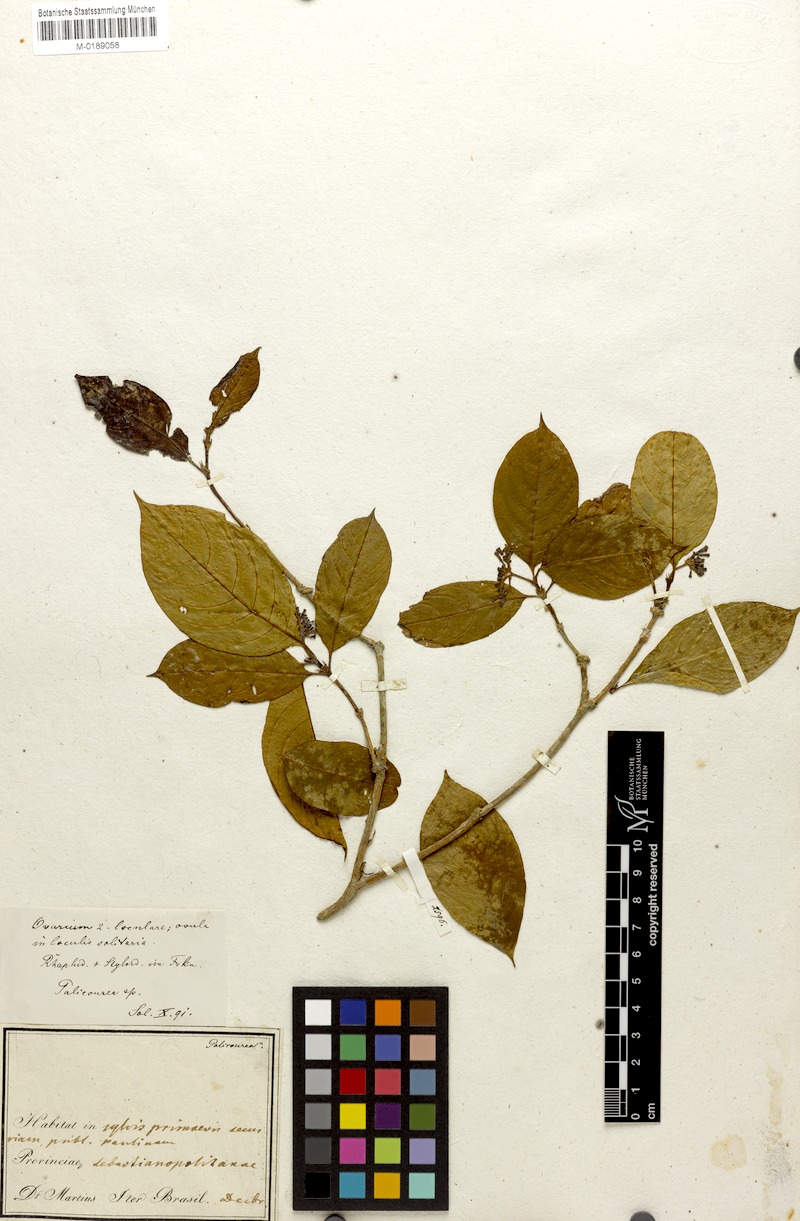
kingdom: Plantae
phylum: Tracheophyta
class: Magnoliopsida
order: Gentianales
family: Rubiaceae
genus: Psychotria
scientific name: Psychotria
